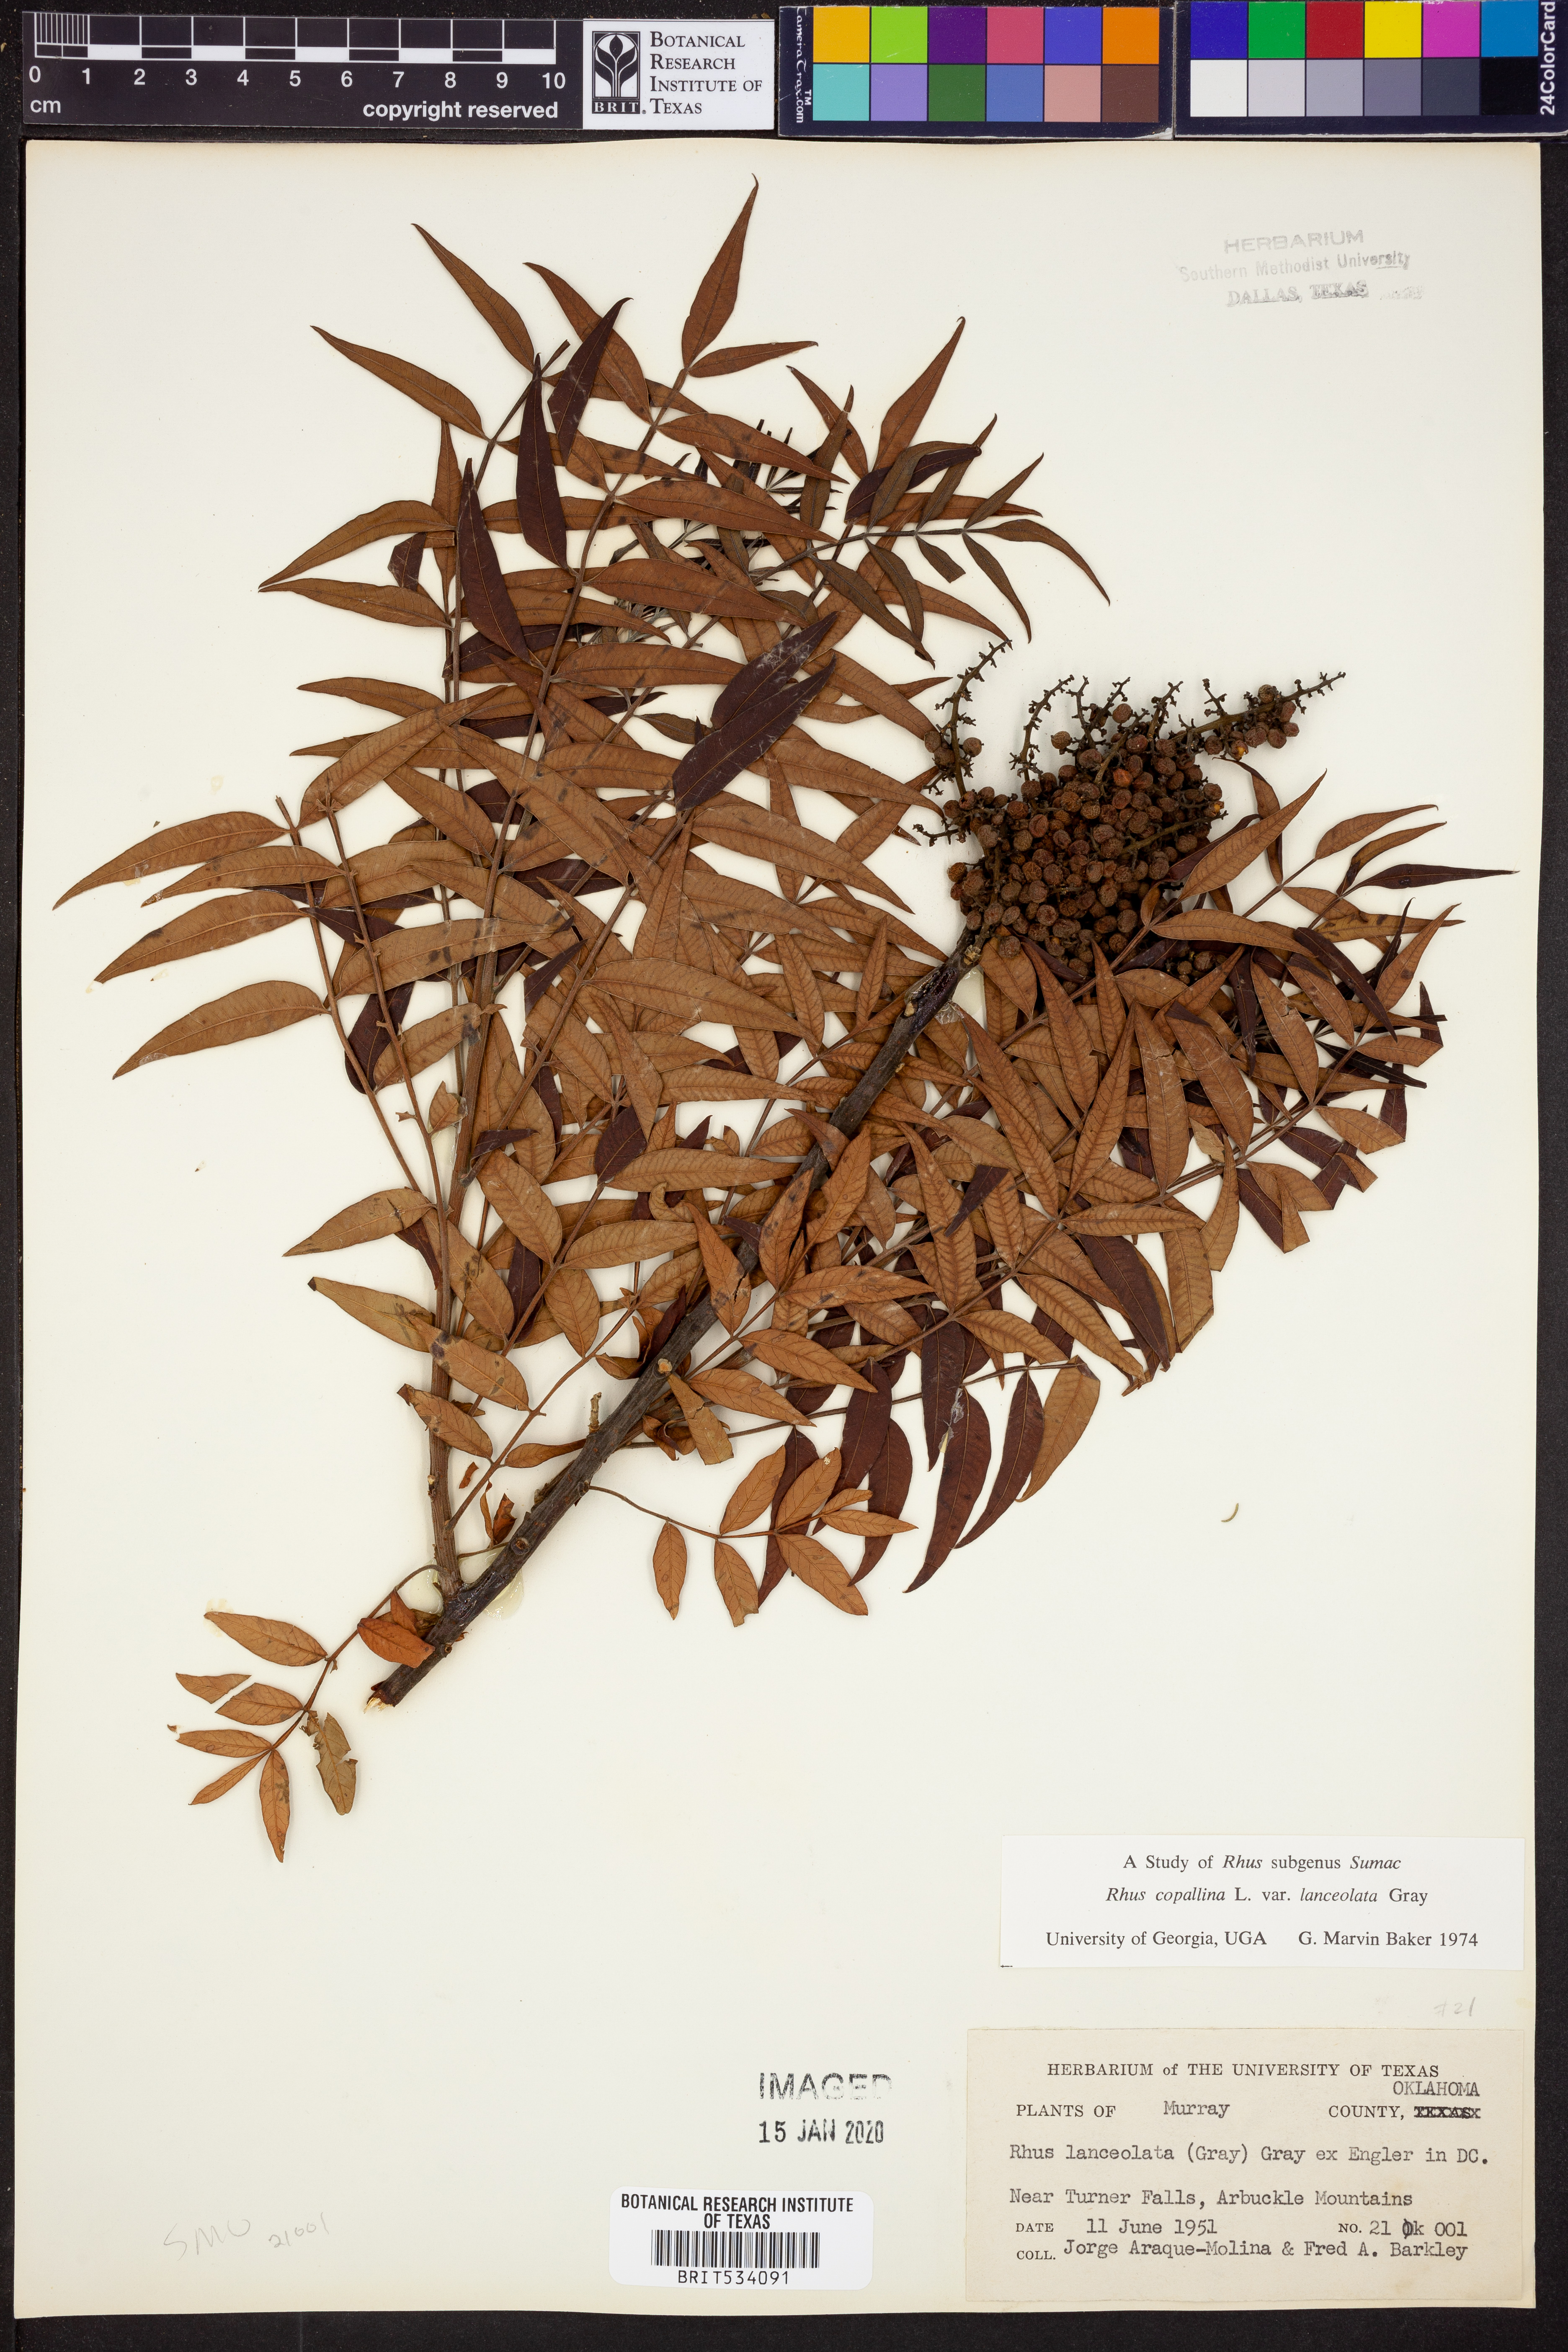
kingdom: Plantae
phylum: Tracheophyta
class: Magnoliopsida
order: Sapindales
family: Anacardiaceae
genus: Rhus
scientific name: Rhus lanceolata
